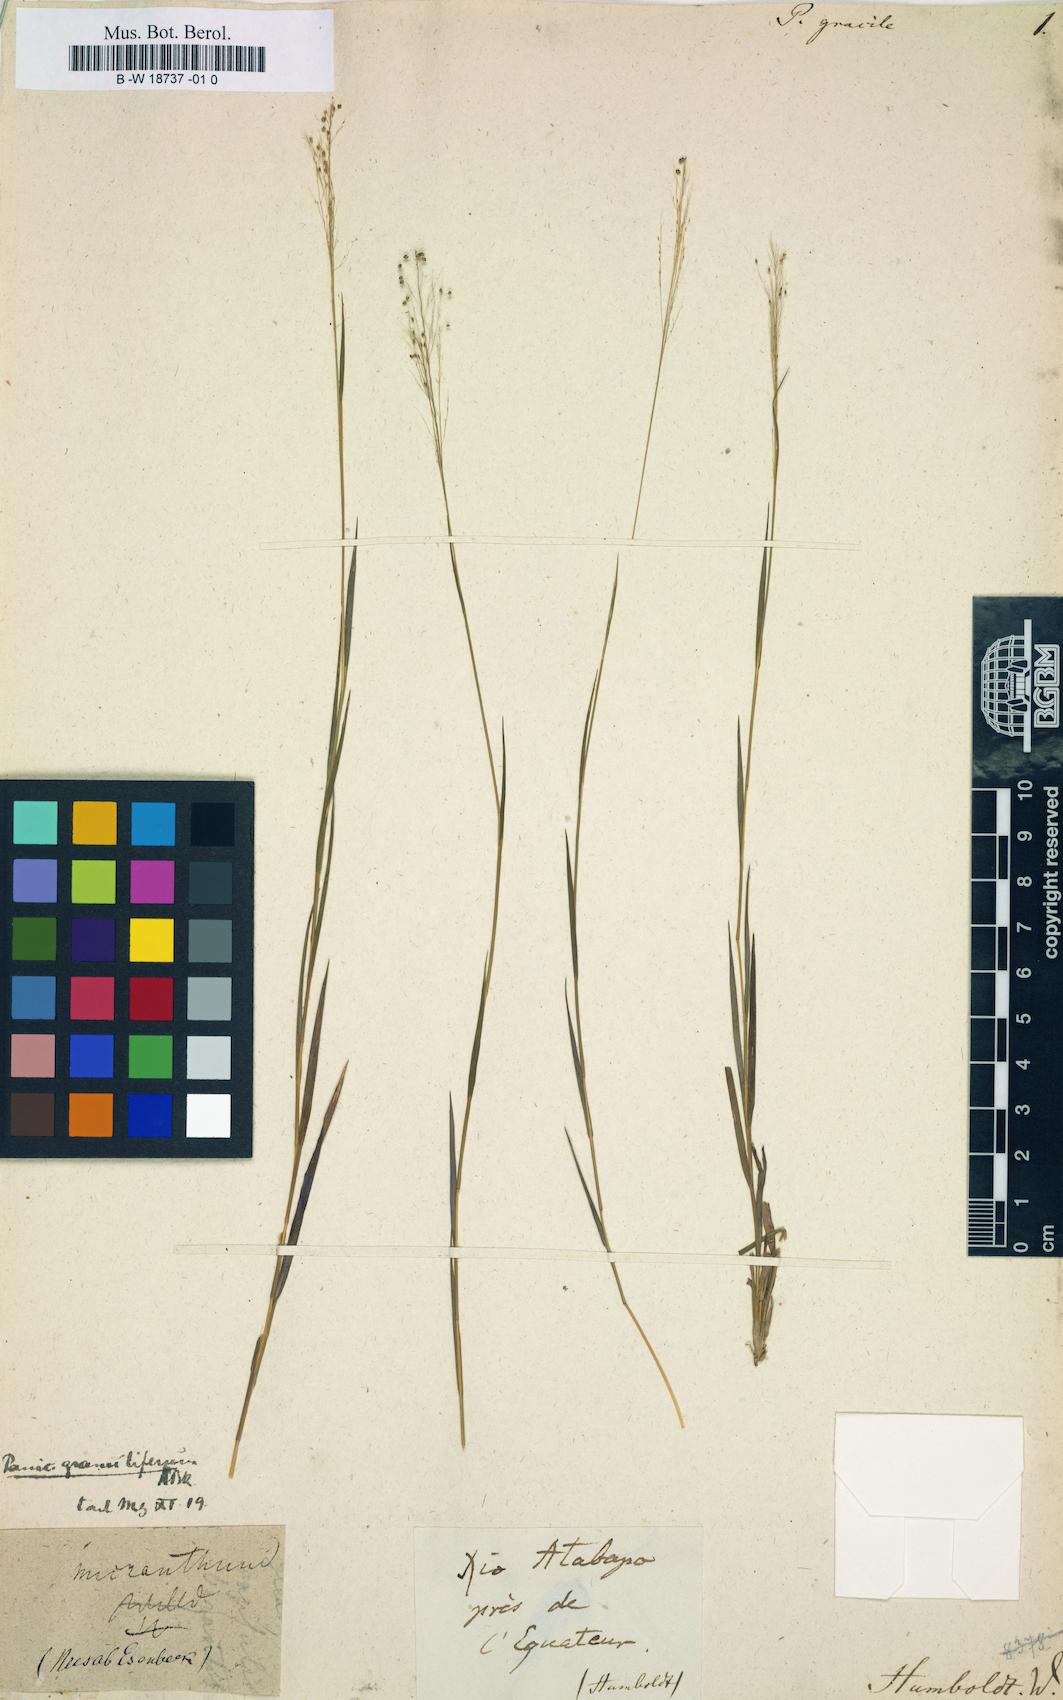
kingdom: Plantae
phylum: Tracheophyta
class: Liliopsida
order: Poales
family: Poaceae
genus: Panicum
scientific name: Panicum gracile
